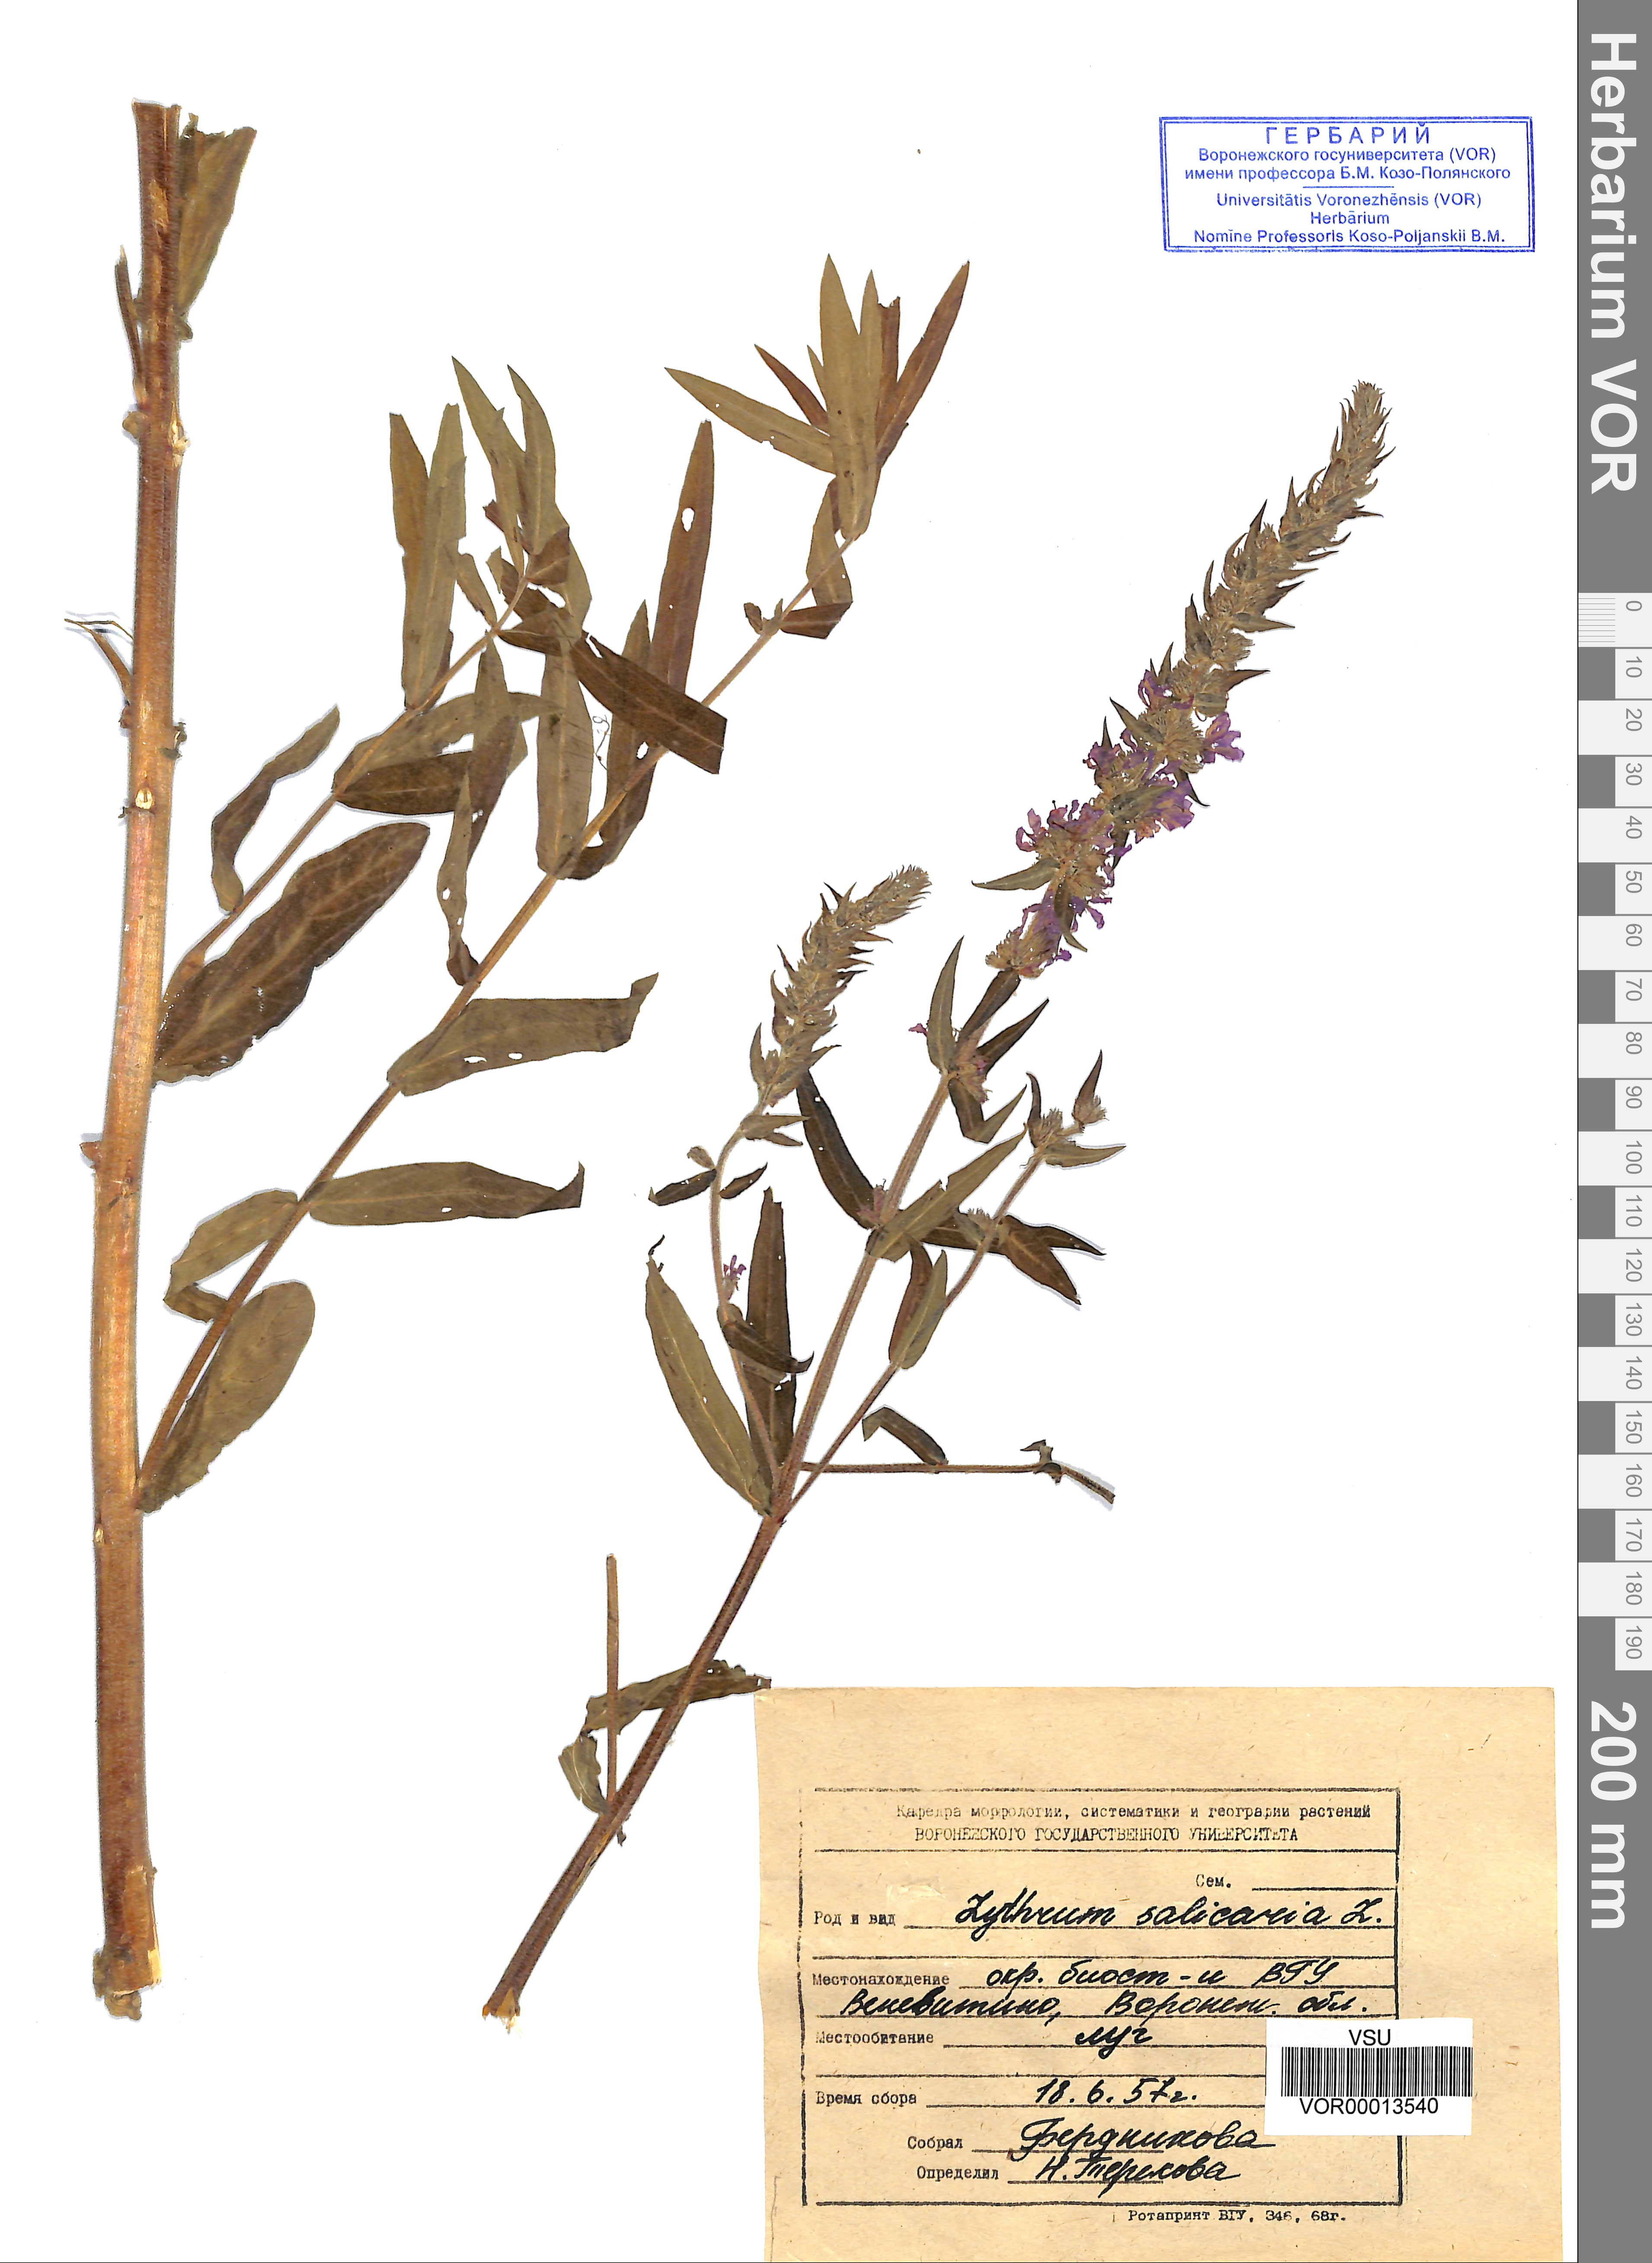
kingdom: Plantae
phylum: Tracheophyta
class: Magnoliopsida
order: Myrtales
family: Lythraceae
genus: Lythrum
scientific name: Lythrum salicaria
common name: Purple loosestrife
